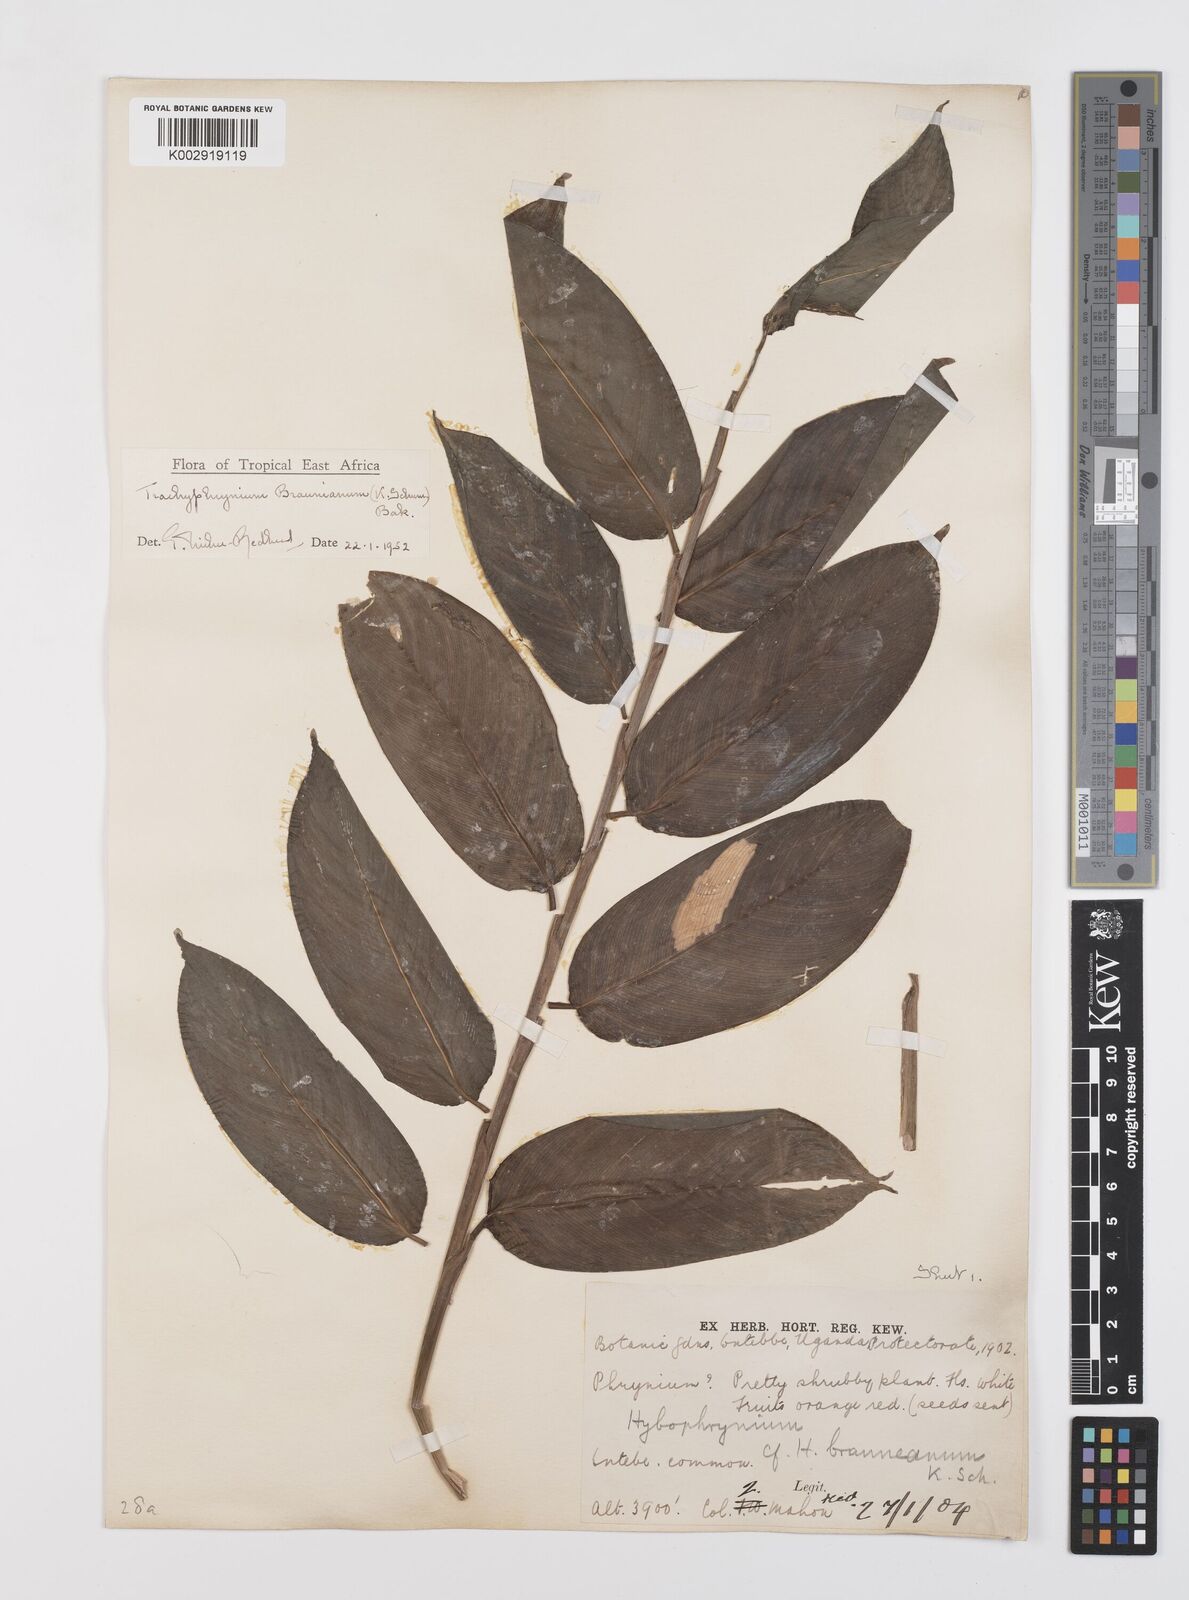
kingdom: Plantae
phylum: Tracheophyta
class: Liliopsida
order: Zingiberales
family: Marantaceae
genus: Trachyphrynium
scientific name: Trachyphrynium braunianum
